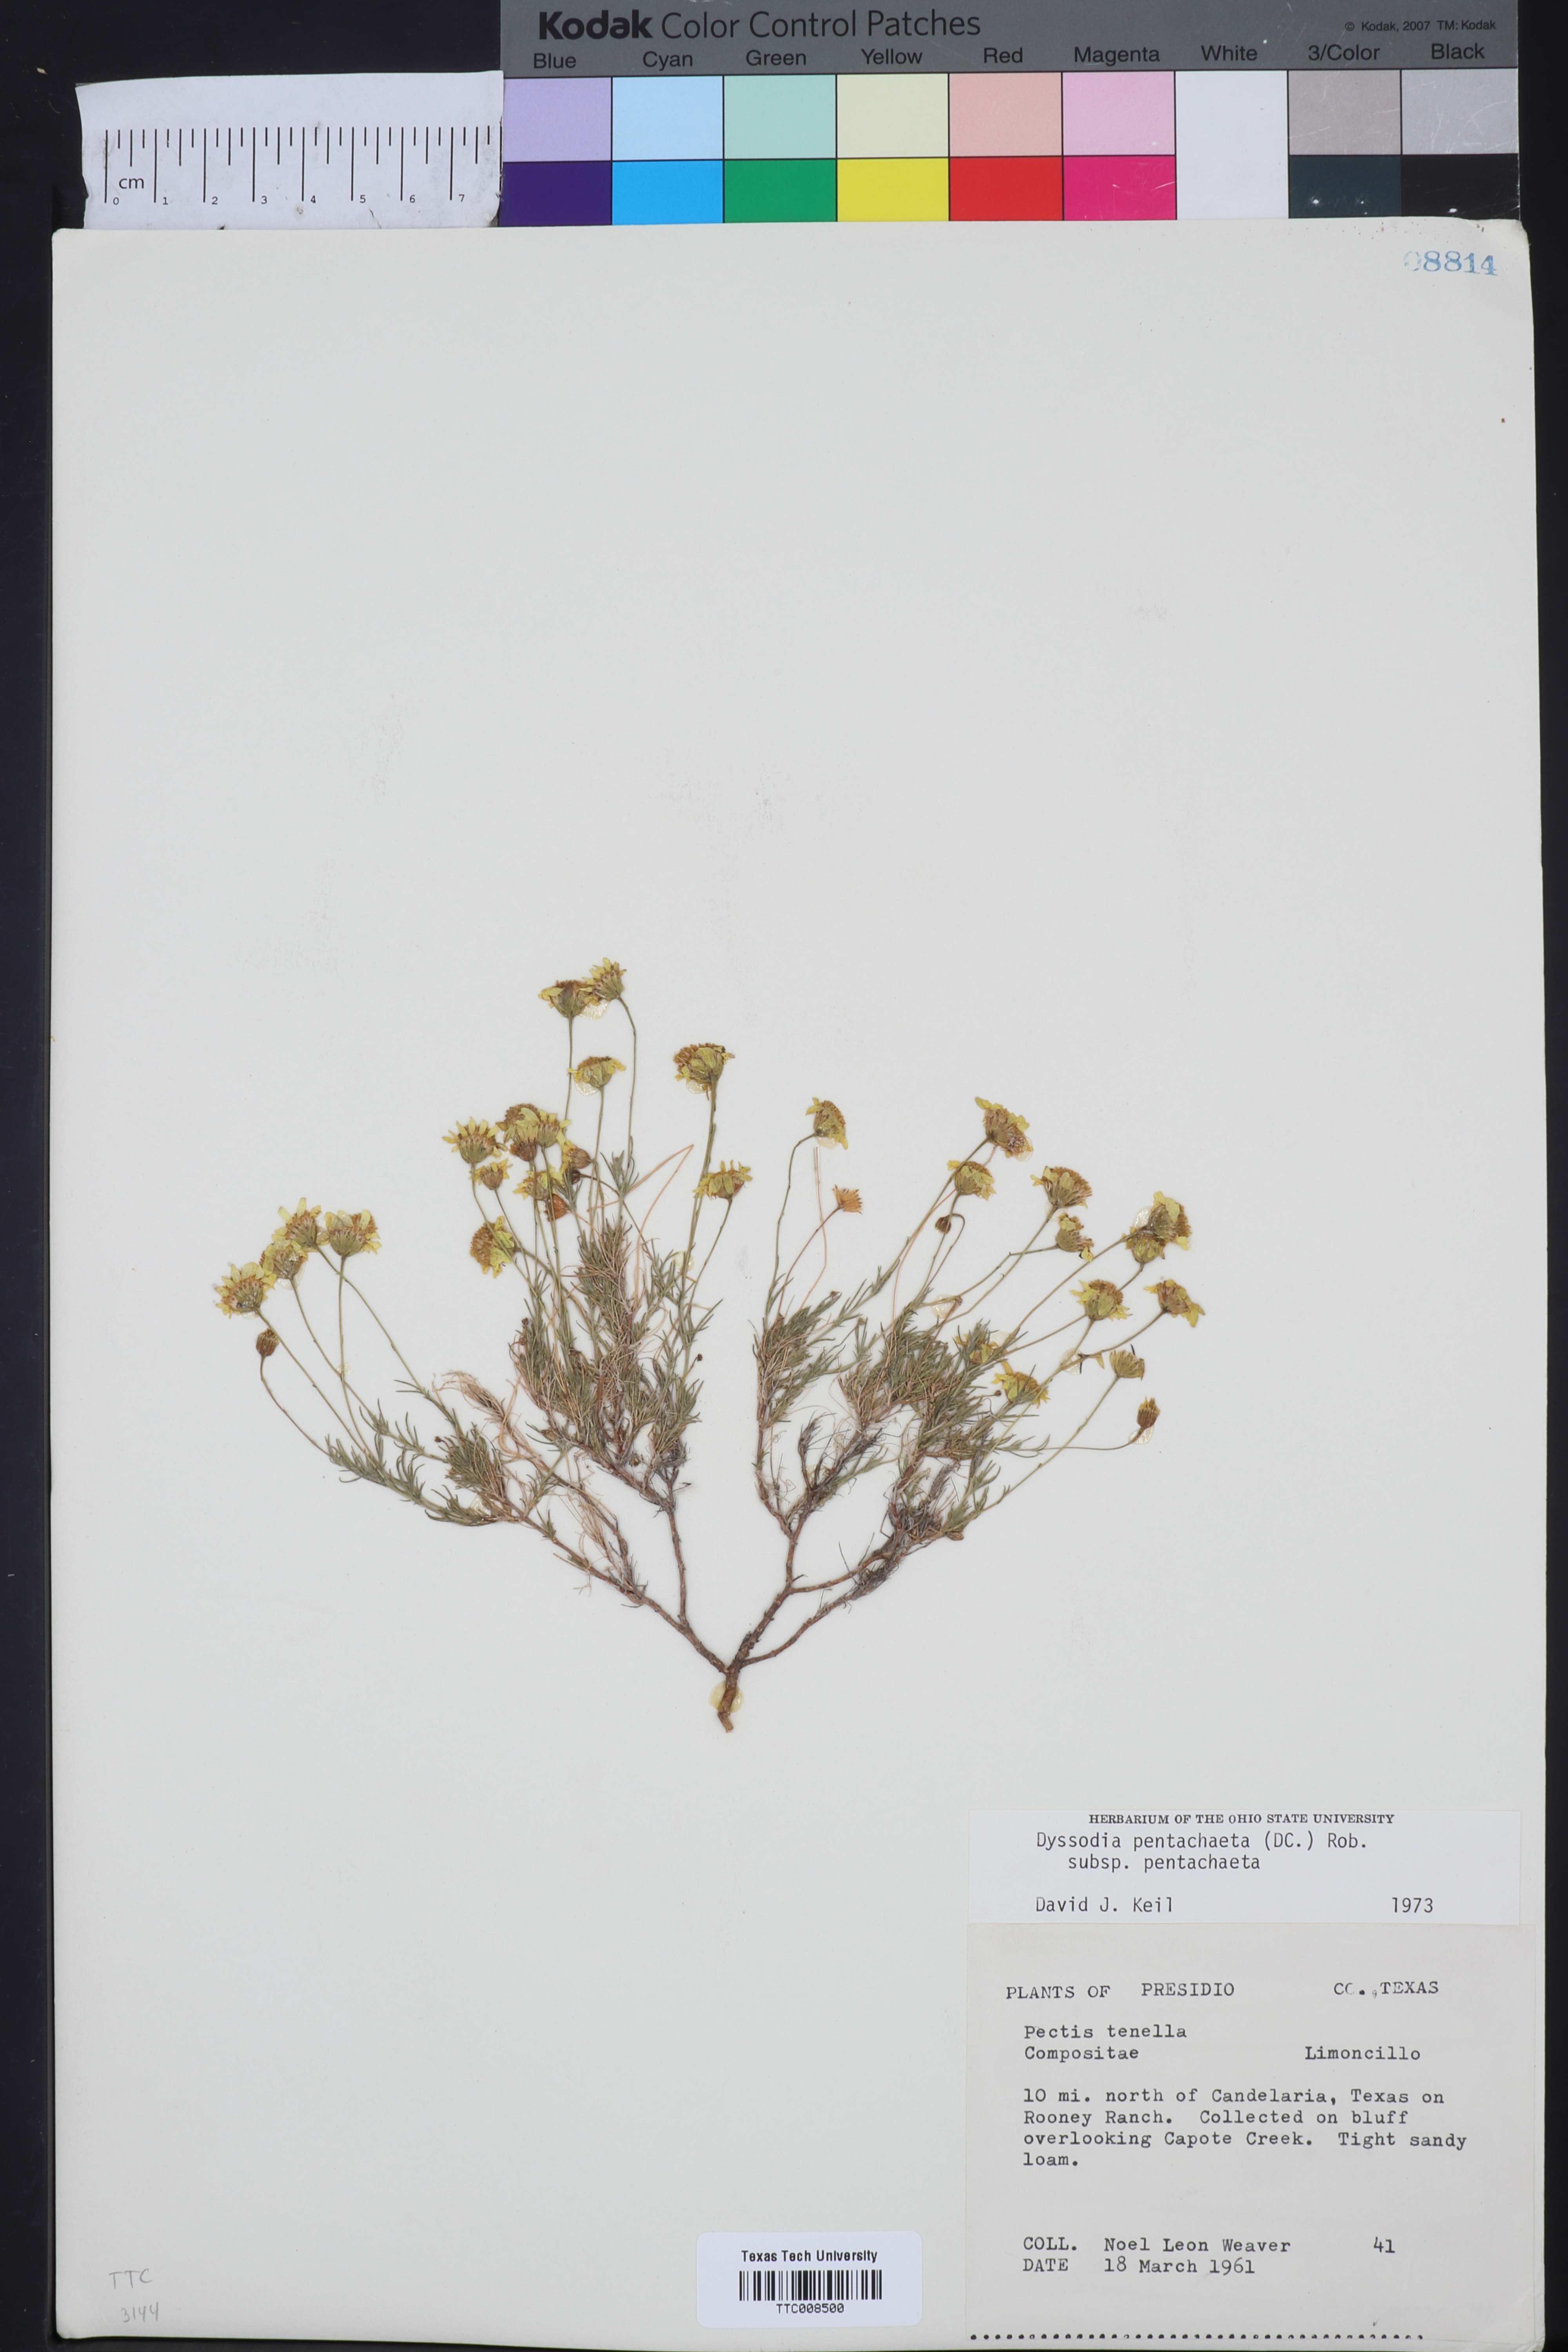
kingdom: Plantae
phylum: Tracheophyta
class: Magnoliopsida
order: Asterales
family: Asteraceae
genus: Thymophylla
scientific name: Thymophylla pentachaeta
